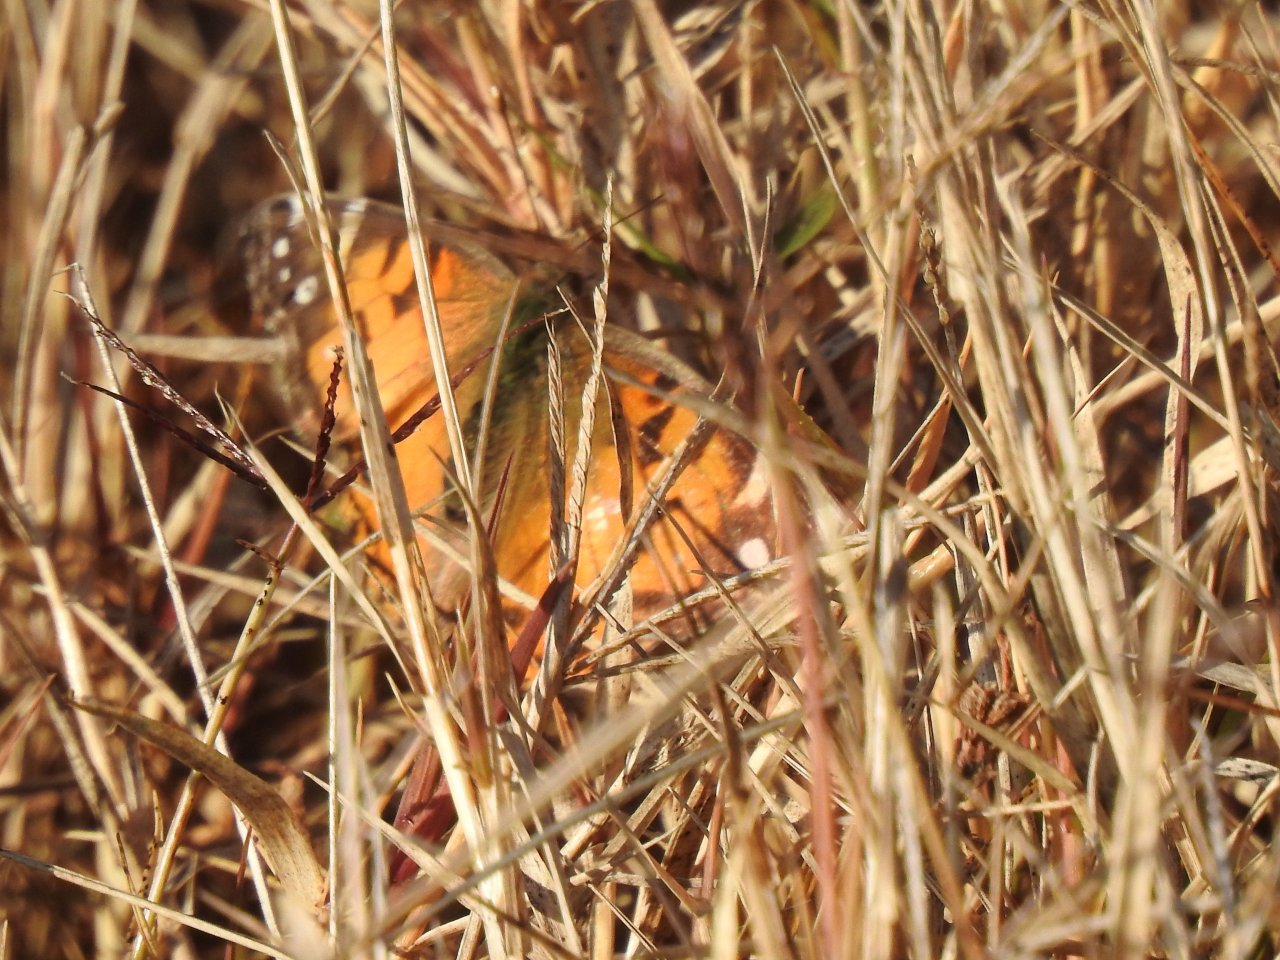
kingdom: Animalia
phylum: Arthropoda
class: Insecta
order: Lepidoptera
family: Nymphalidae
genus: Vanessa
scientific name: Vanessa virginiensis
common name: American Lady
